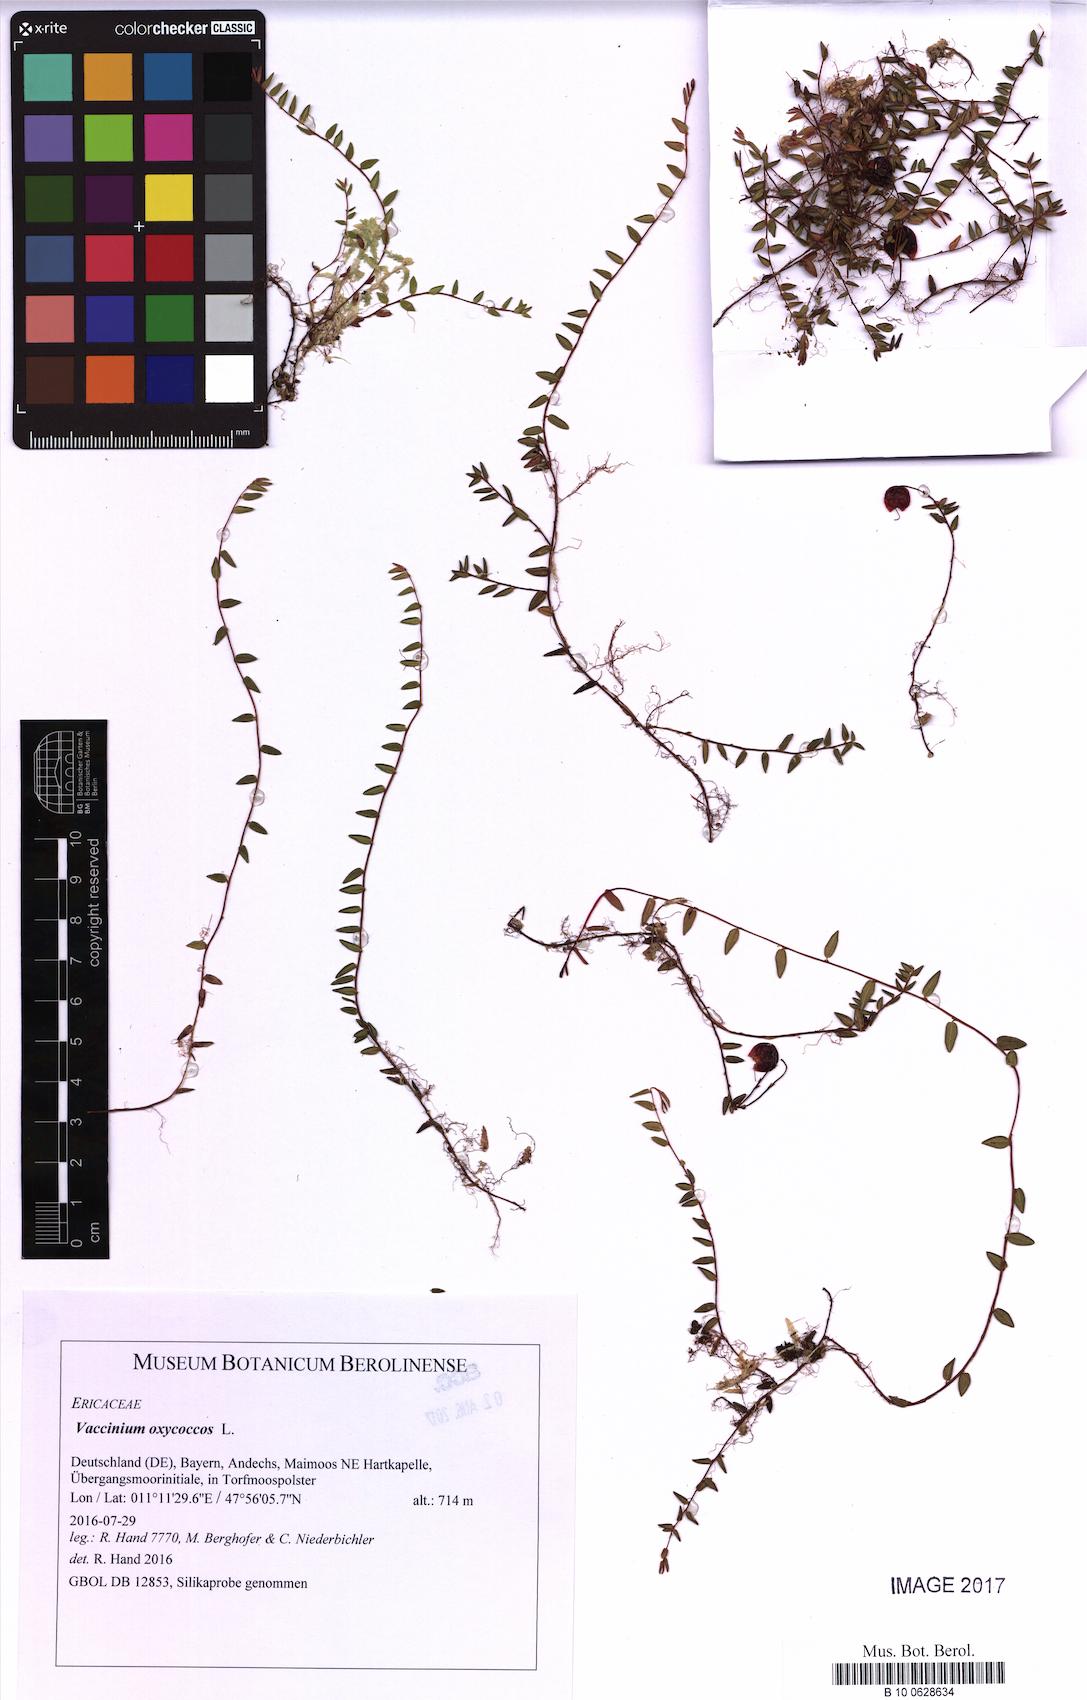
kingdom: Plantae
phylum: Tracheophyta
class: Magnoliopsida
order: Ericales
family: Ericaceae
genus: Vaccinium
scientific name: Vaccinium oxycoccos
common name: Cranberry
